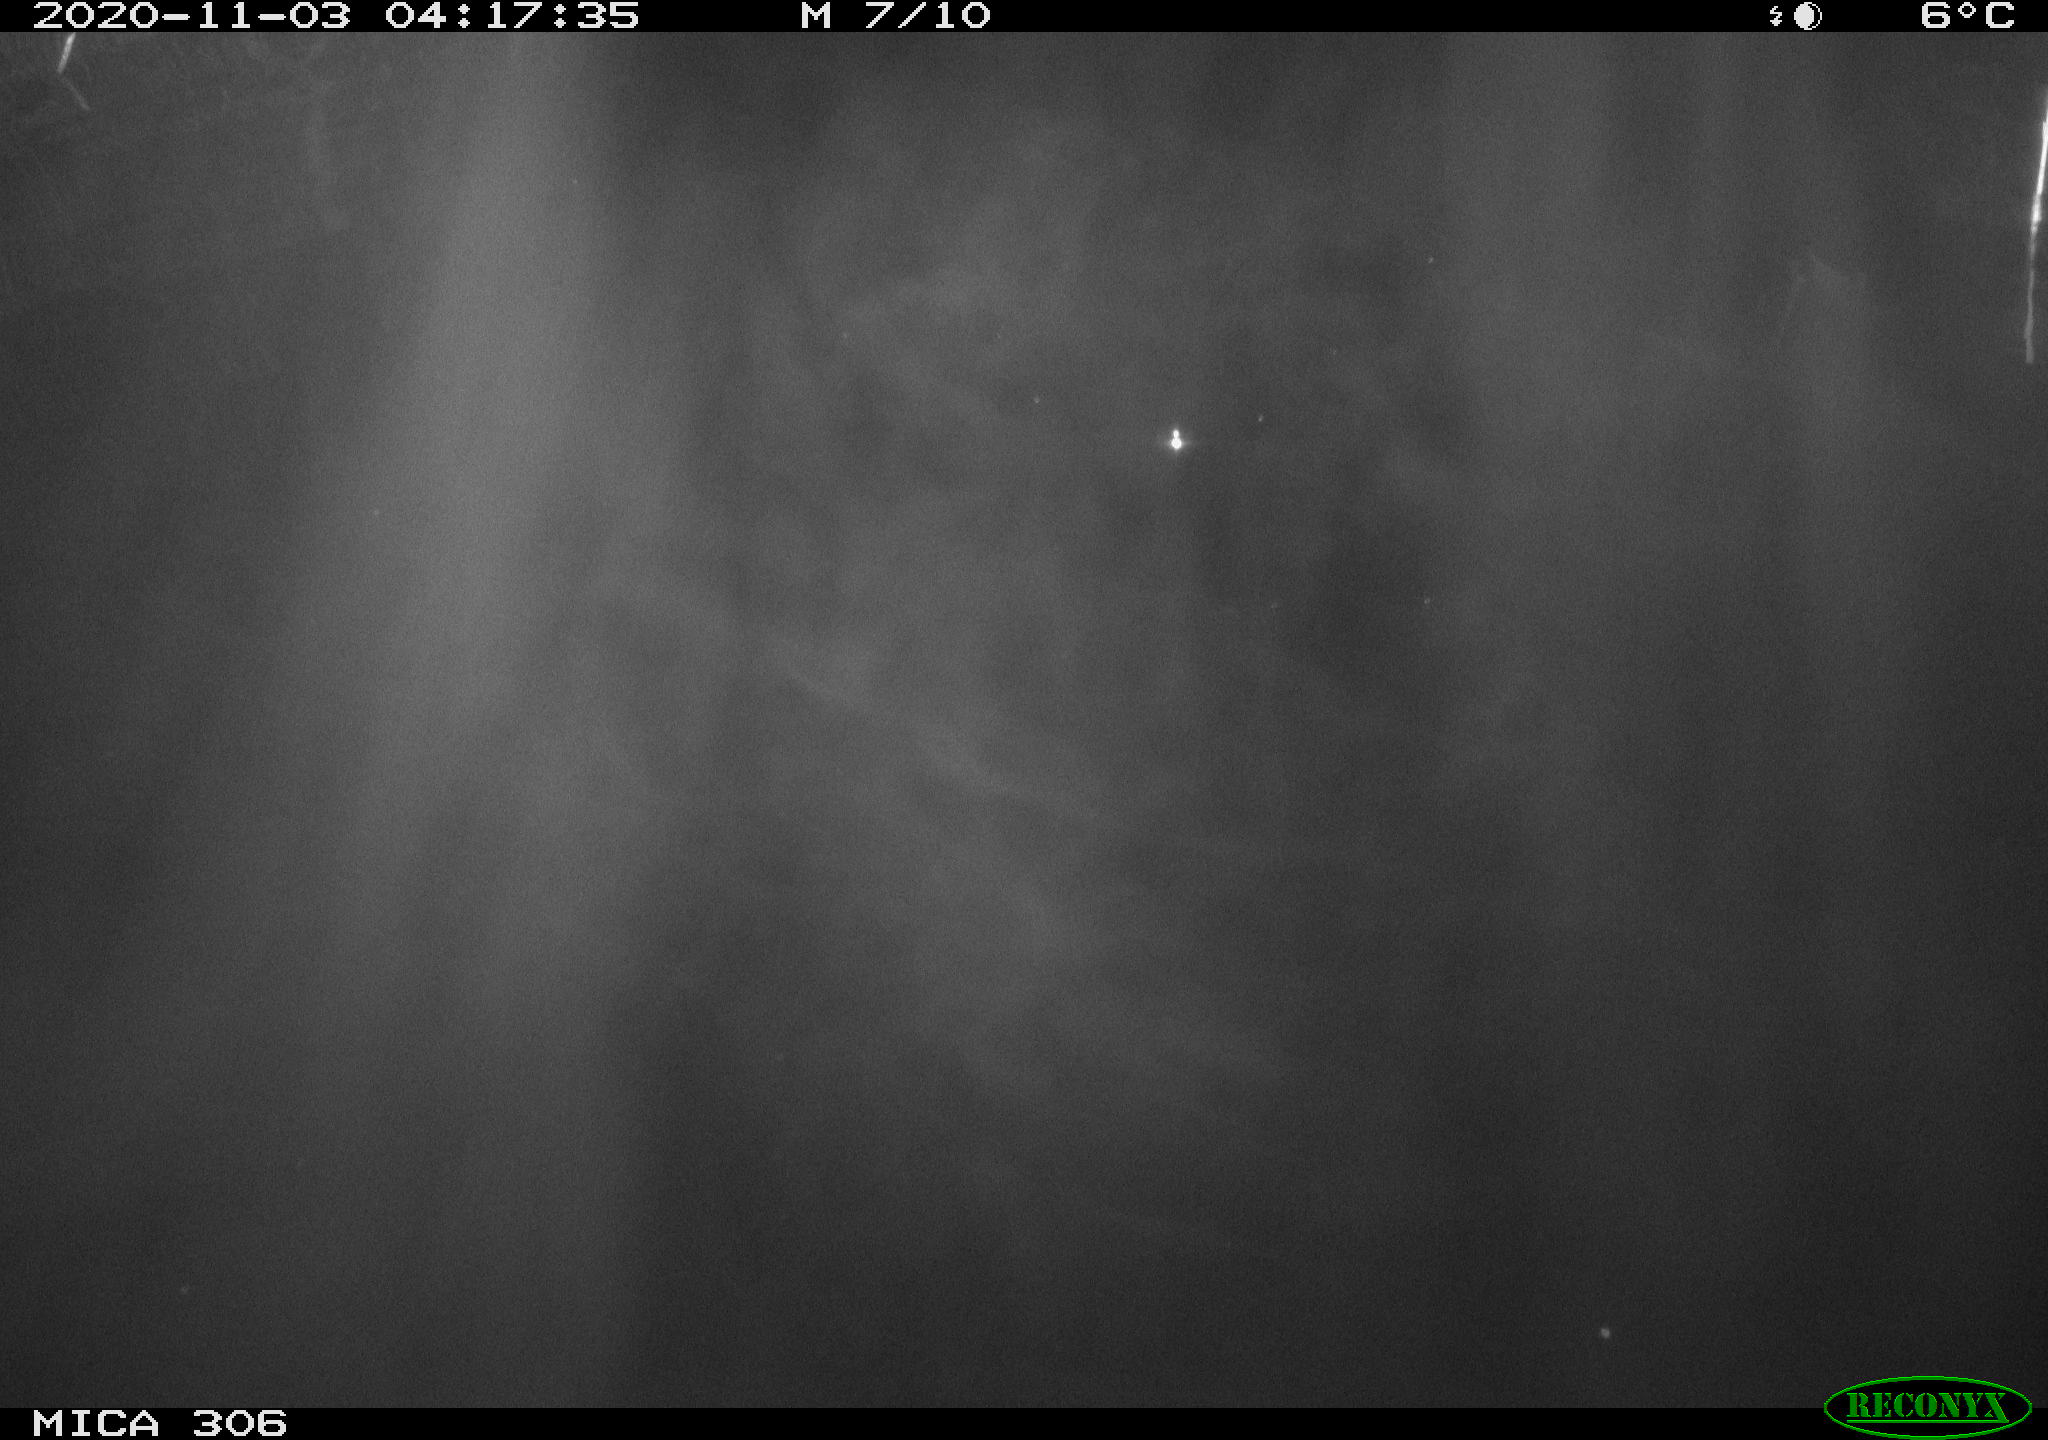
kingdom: Animalia
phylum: Chordata
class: Mammalia
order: Rodentia
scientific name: Rodentia
